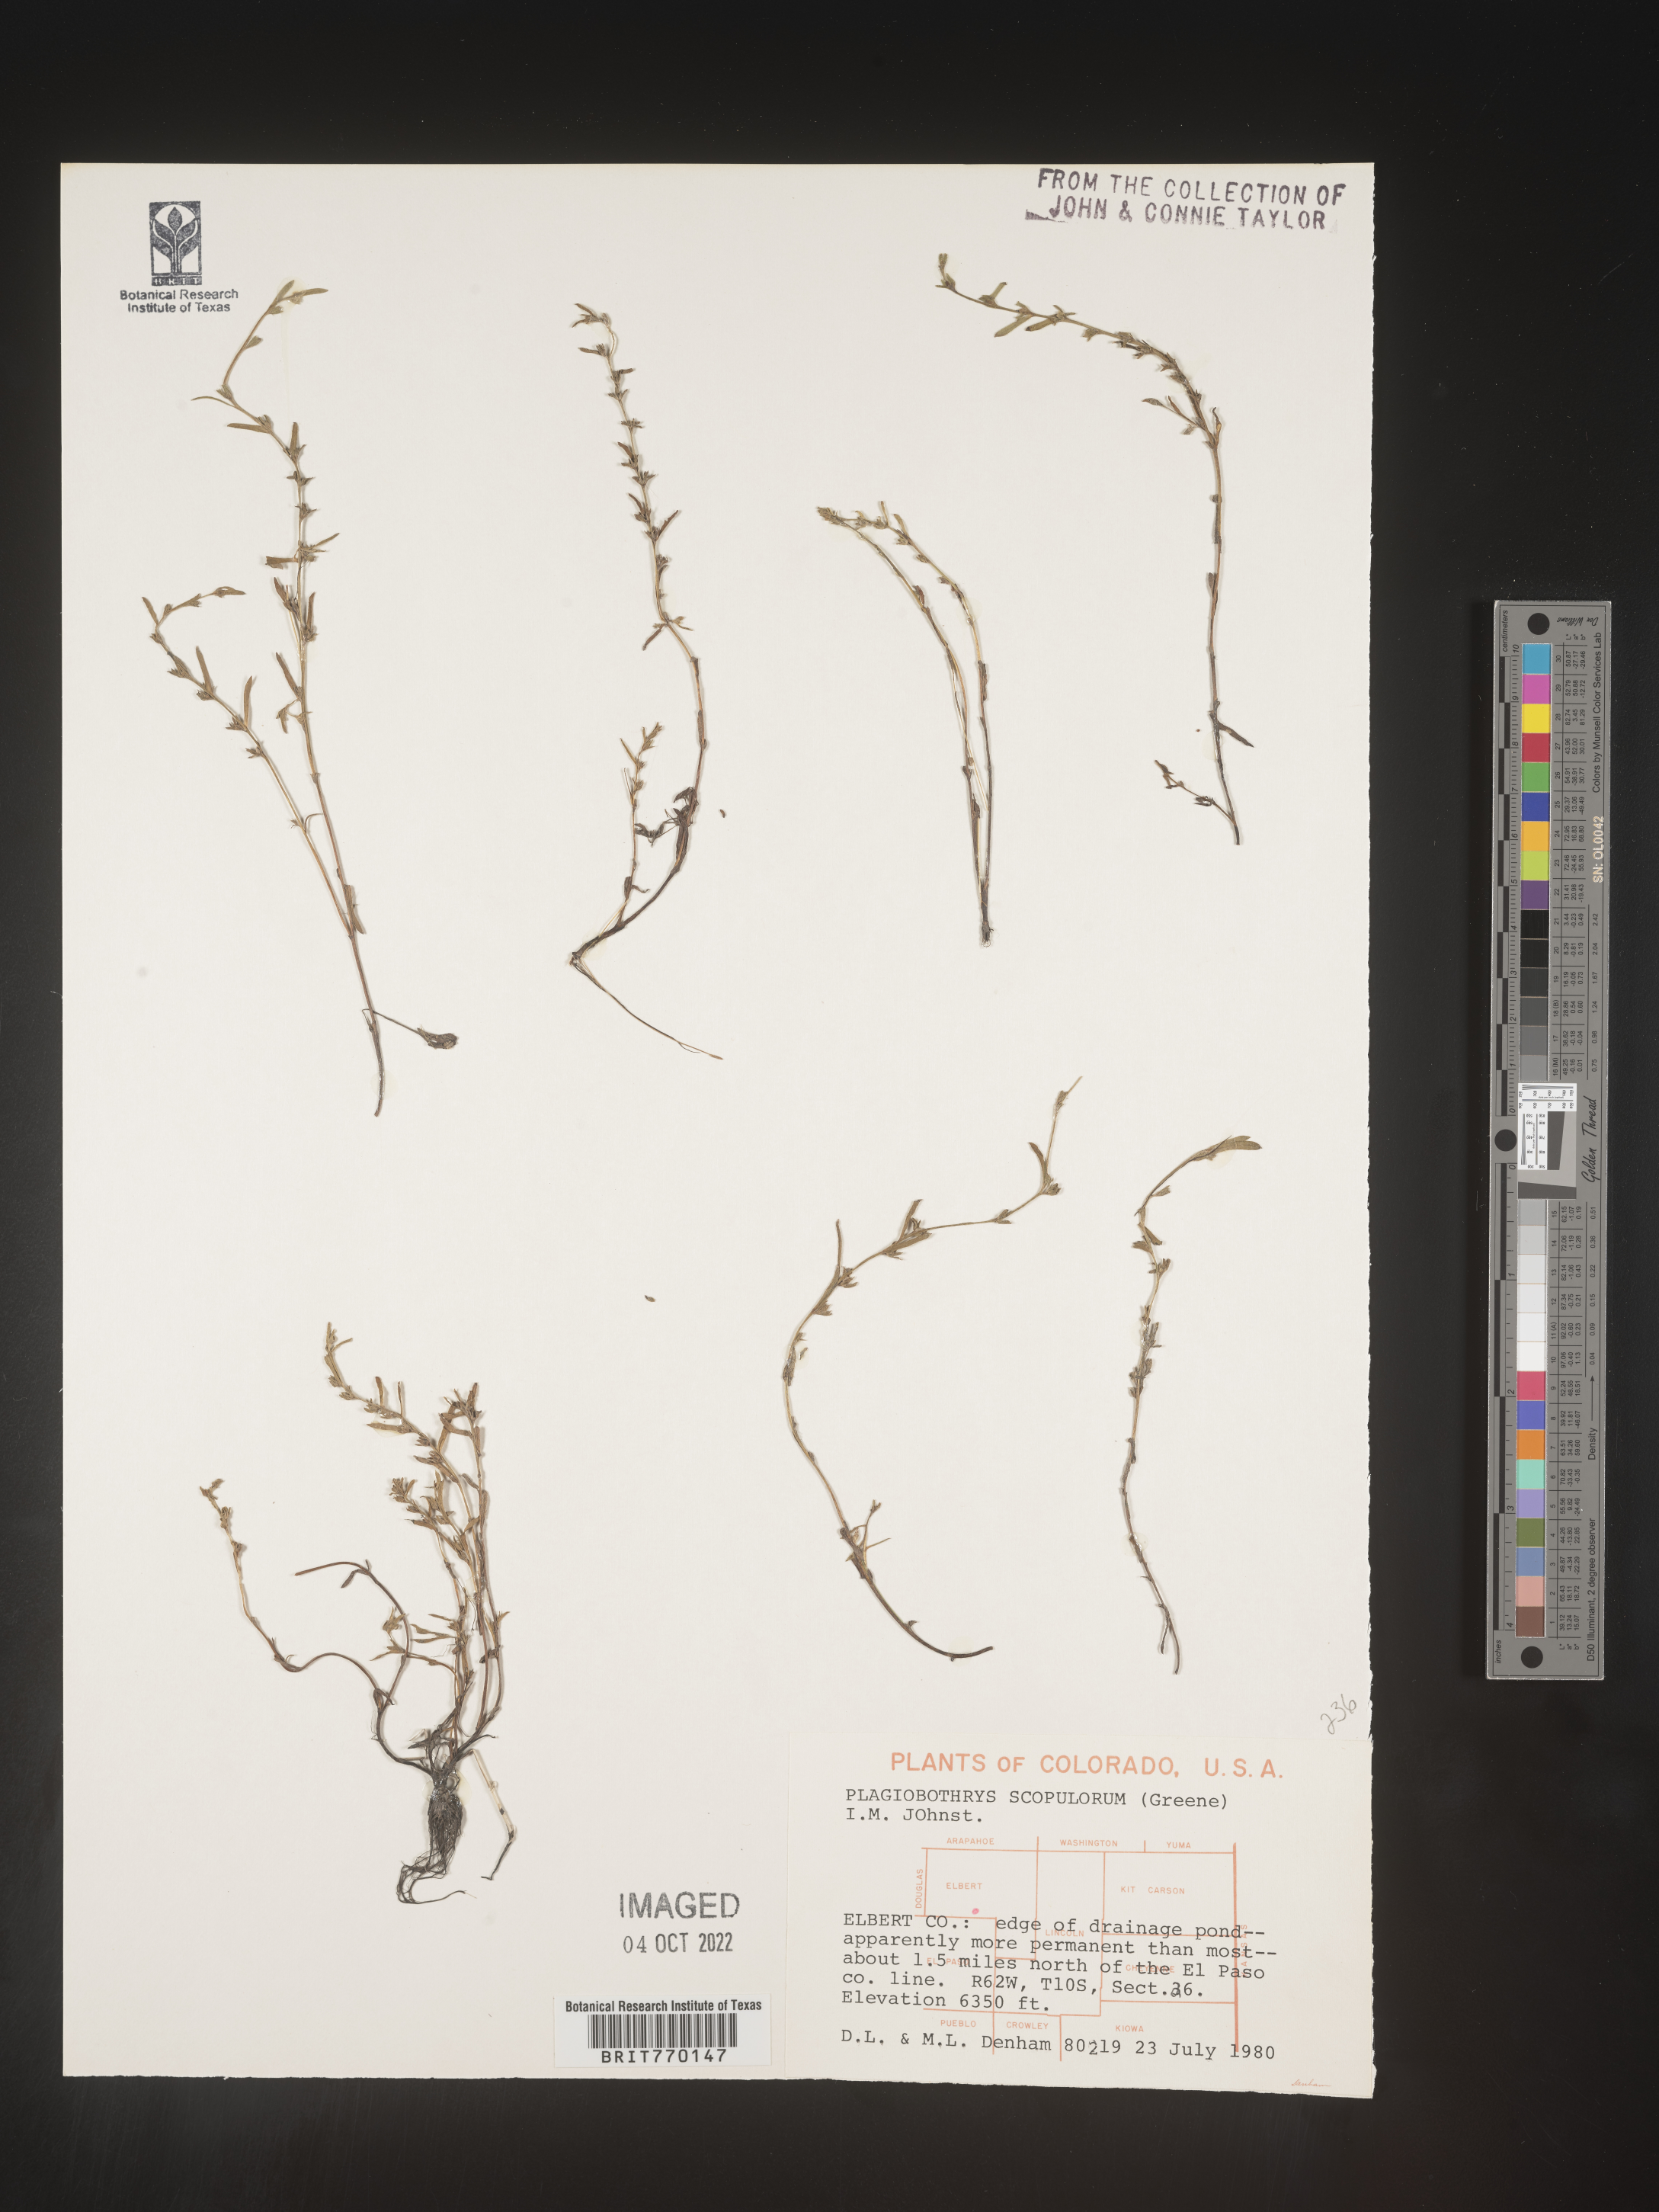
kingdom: Plantae
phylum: Tracheophyta
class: Magnoliopsida
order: Boraginales
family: Boraginaceae
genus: Plagiobothrys
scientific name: Plagiobothrys
